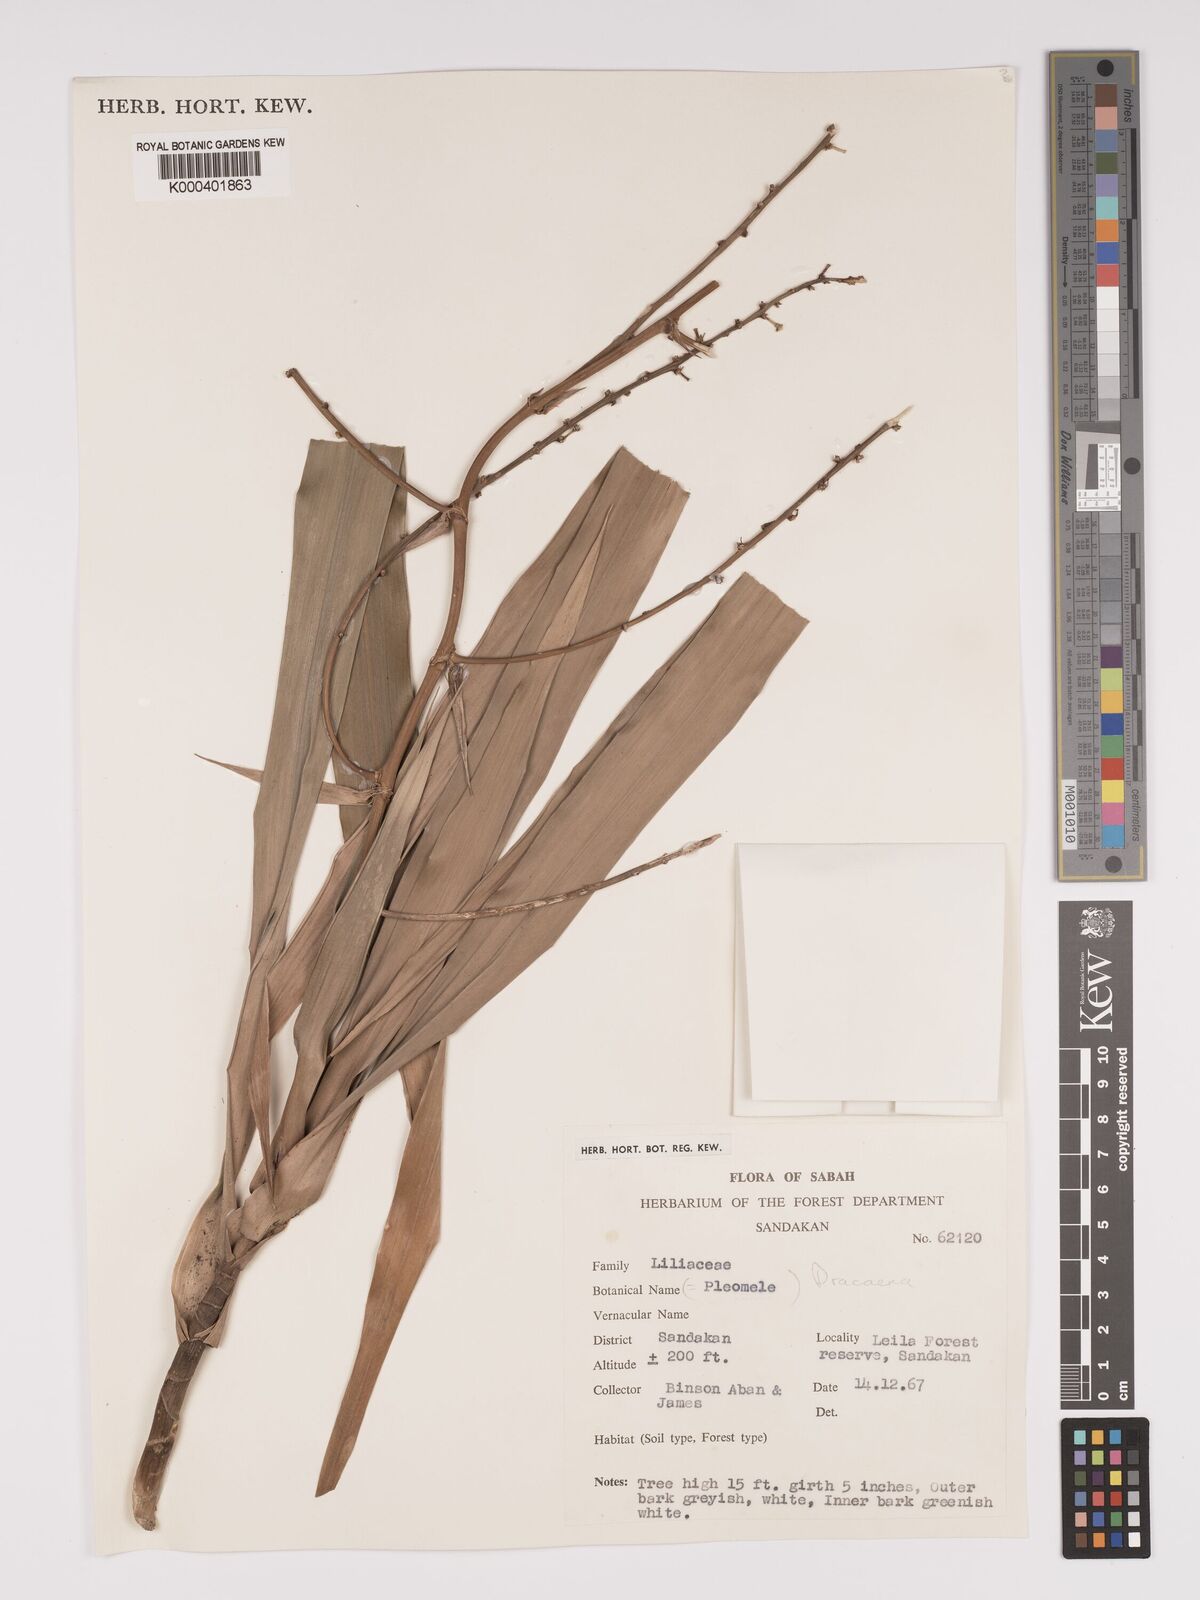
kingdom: Plantae
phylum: Tracheophyta
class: Liliopsida
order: Asparagales
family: Asparagaceae
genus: Dracaena
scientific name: Dracaena
